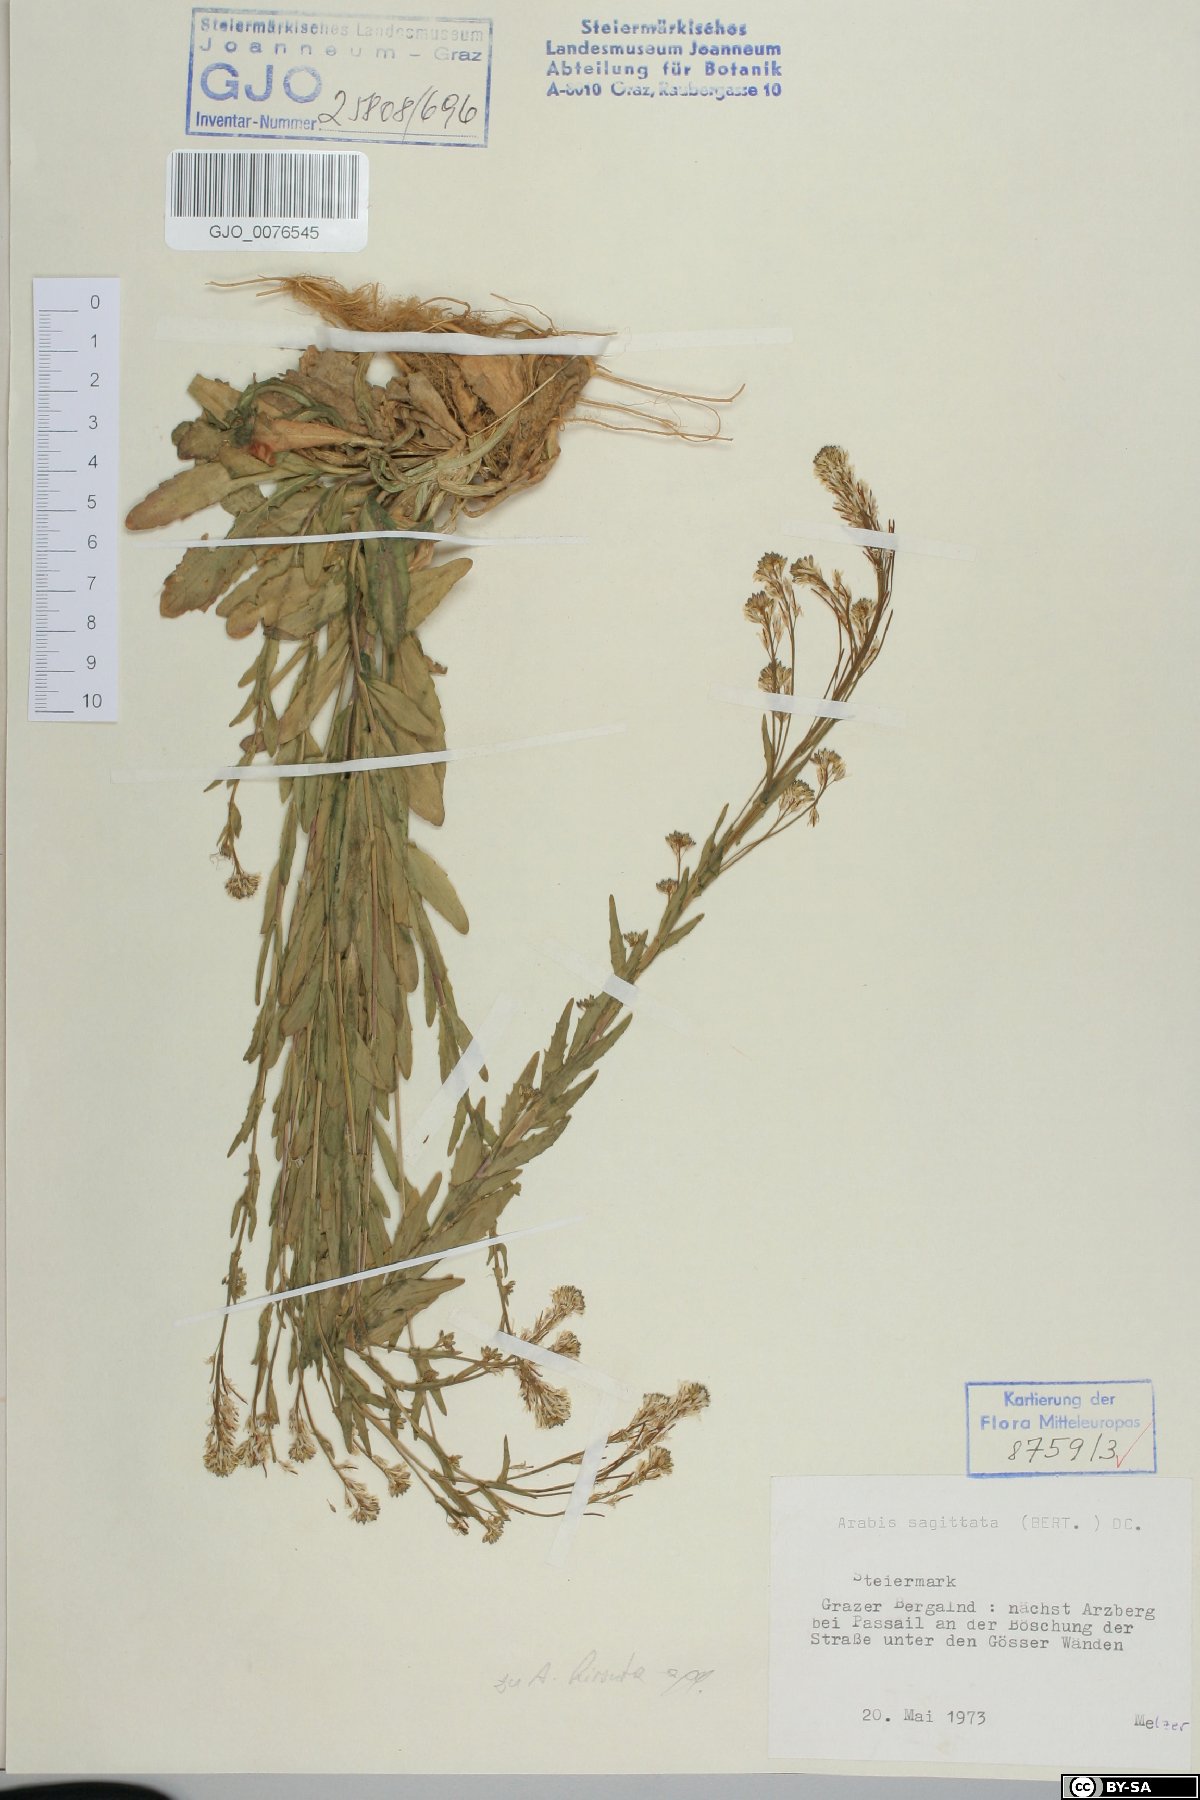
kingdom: Plantae
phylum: Tracheophyta
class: Magnoliopsida
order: Brassicales
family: Brassicaceae
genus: Arabis
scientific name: Arabis sagittata
